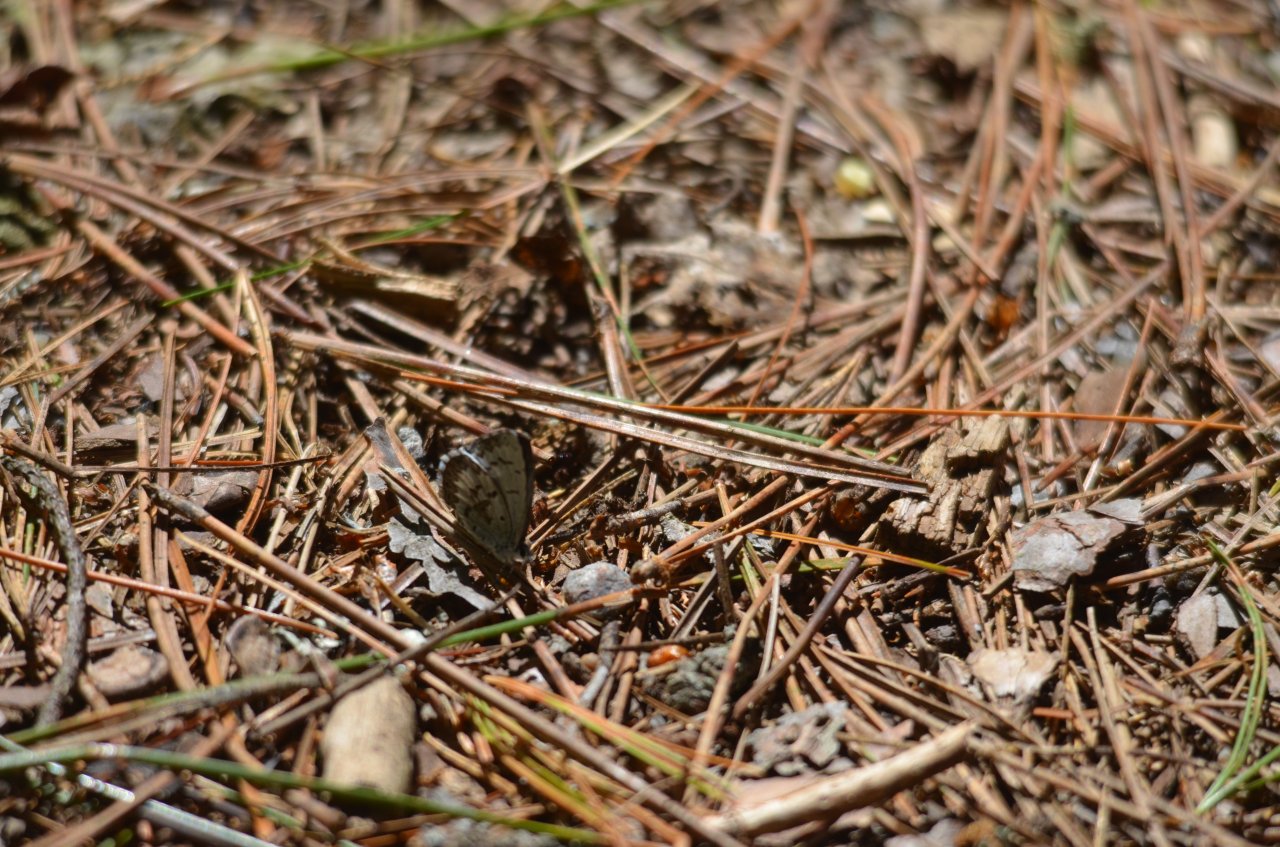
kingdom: Animalia
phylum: Arthropoda
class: Insecta
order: Lepidoptera
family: Lycaenidae
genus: Celastrina
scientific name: Celastrina lucia
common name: Northern Spring Azure
